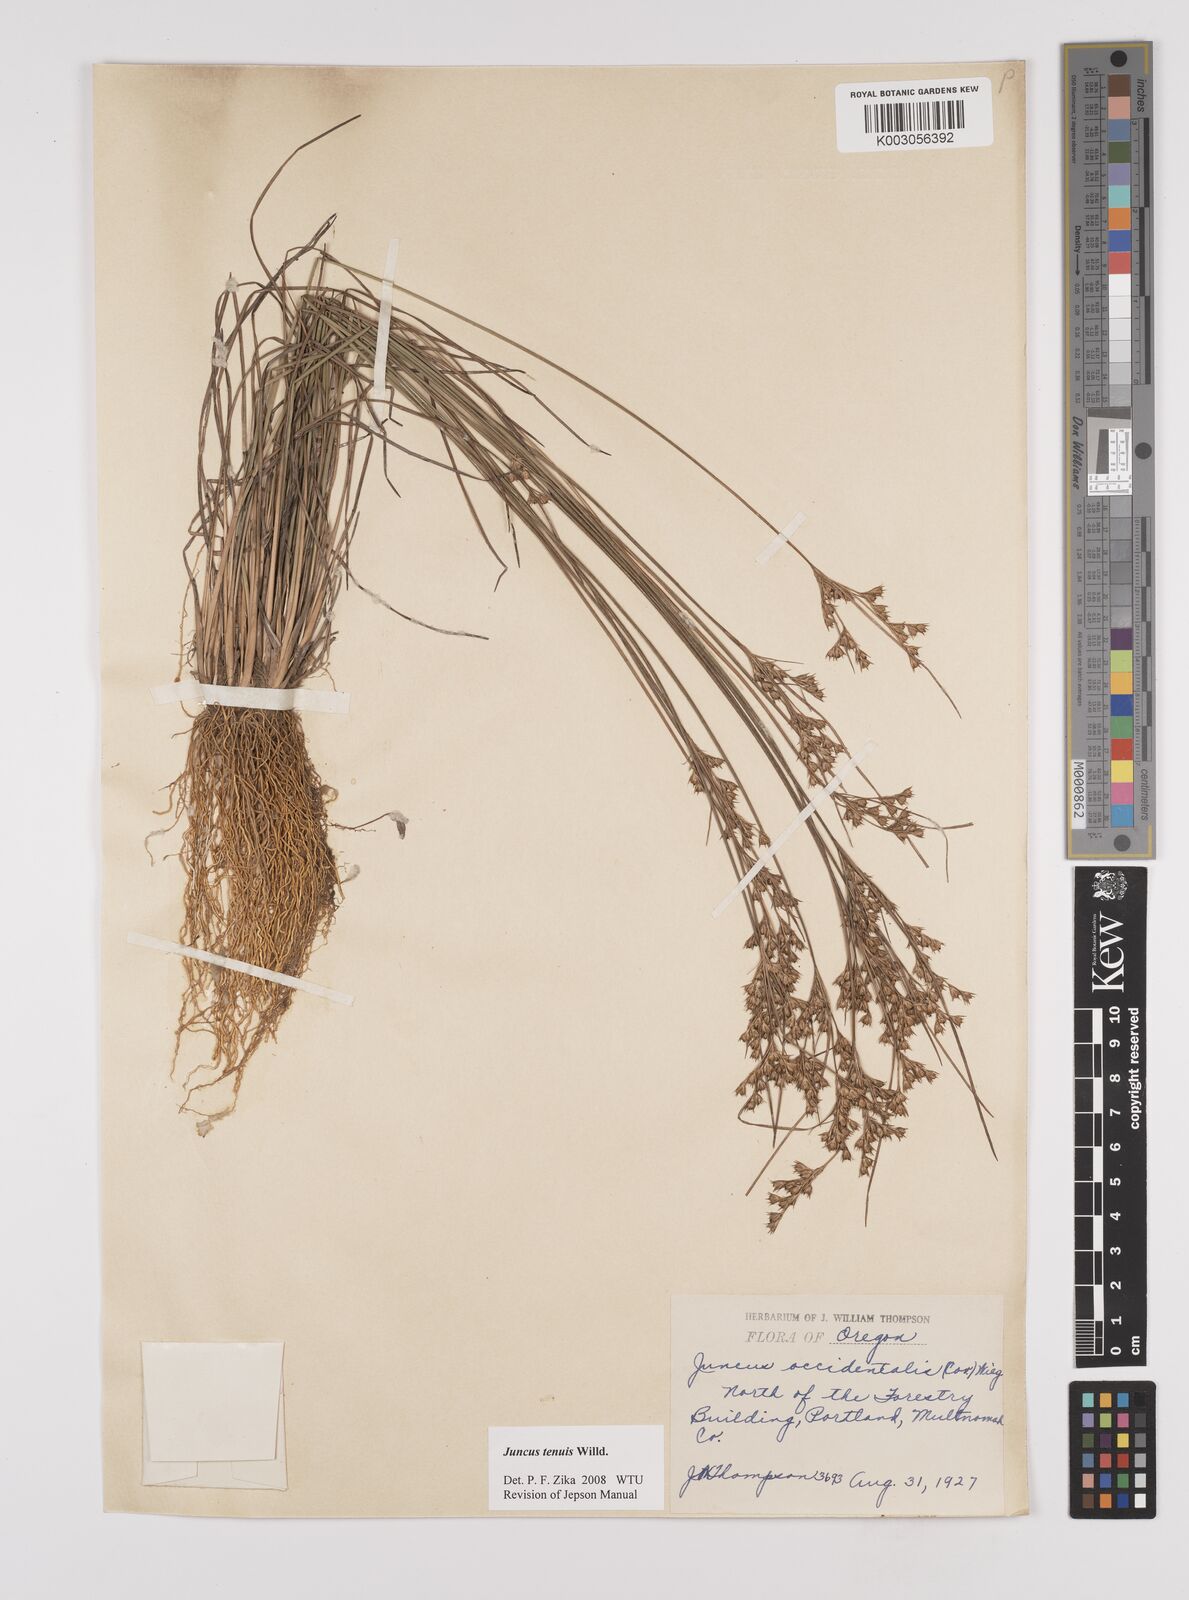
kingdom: Plantae
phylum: Tracheophyta
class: Liliopsida
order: Poales
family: Juncaceae
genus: Juncus
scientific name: Juncus tenuis
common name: Slender rush
